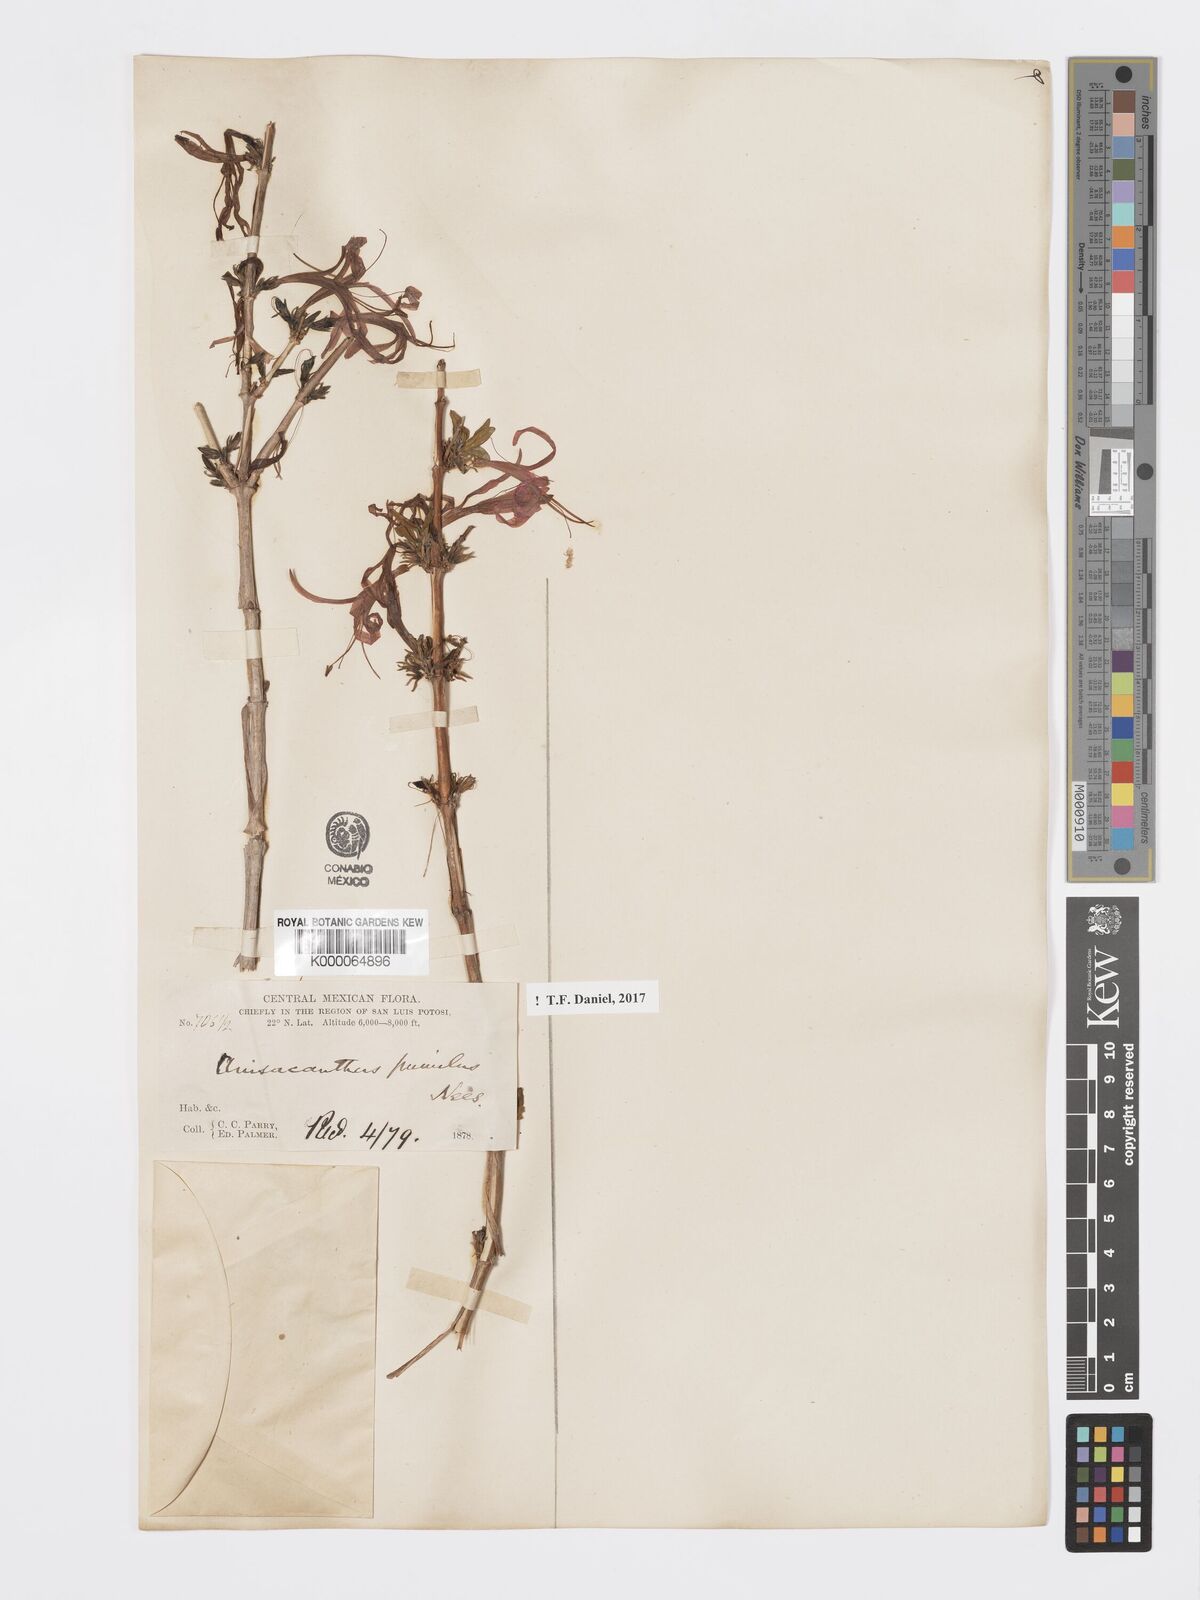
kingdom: Plantae
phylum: Tracheophyta
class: Magnoliopsida
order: Lamiales
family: Acanthaceae
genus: Anisacanthus
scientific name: Anisacanthus pumilus
